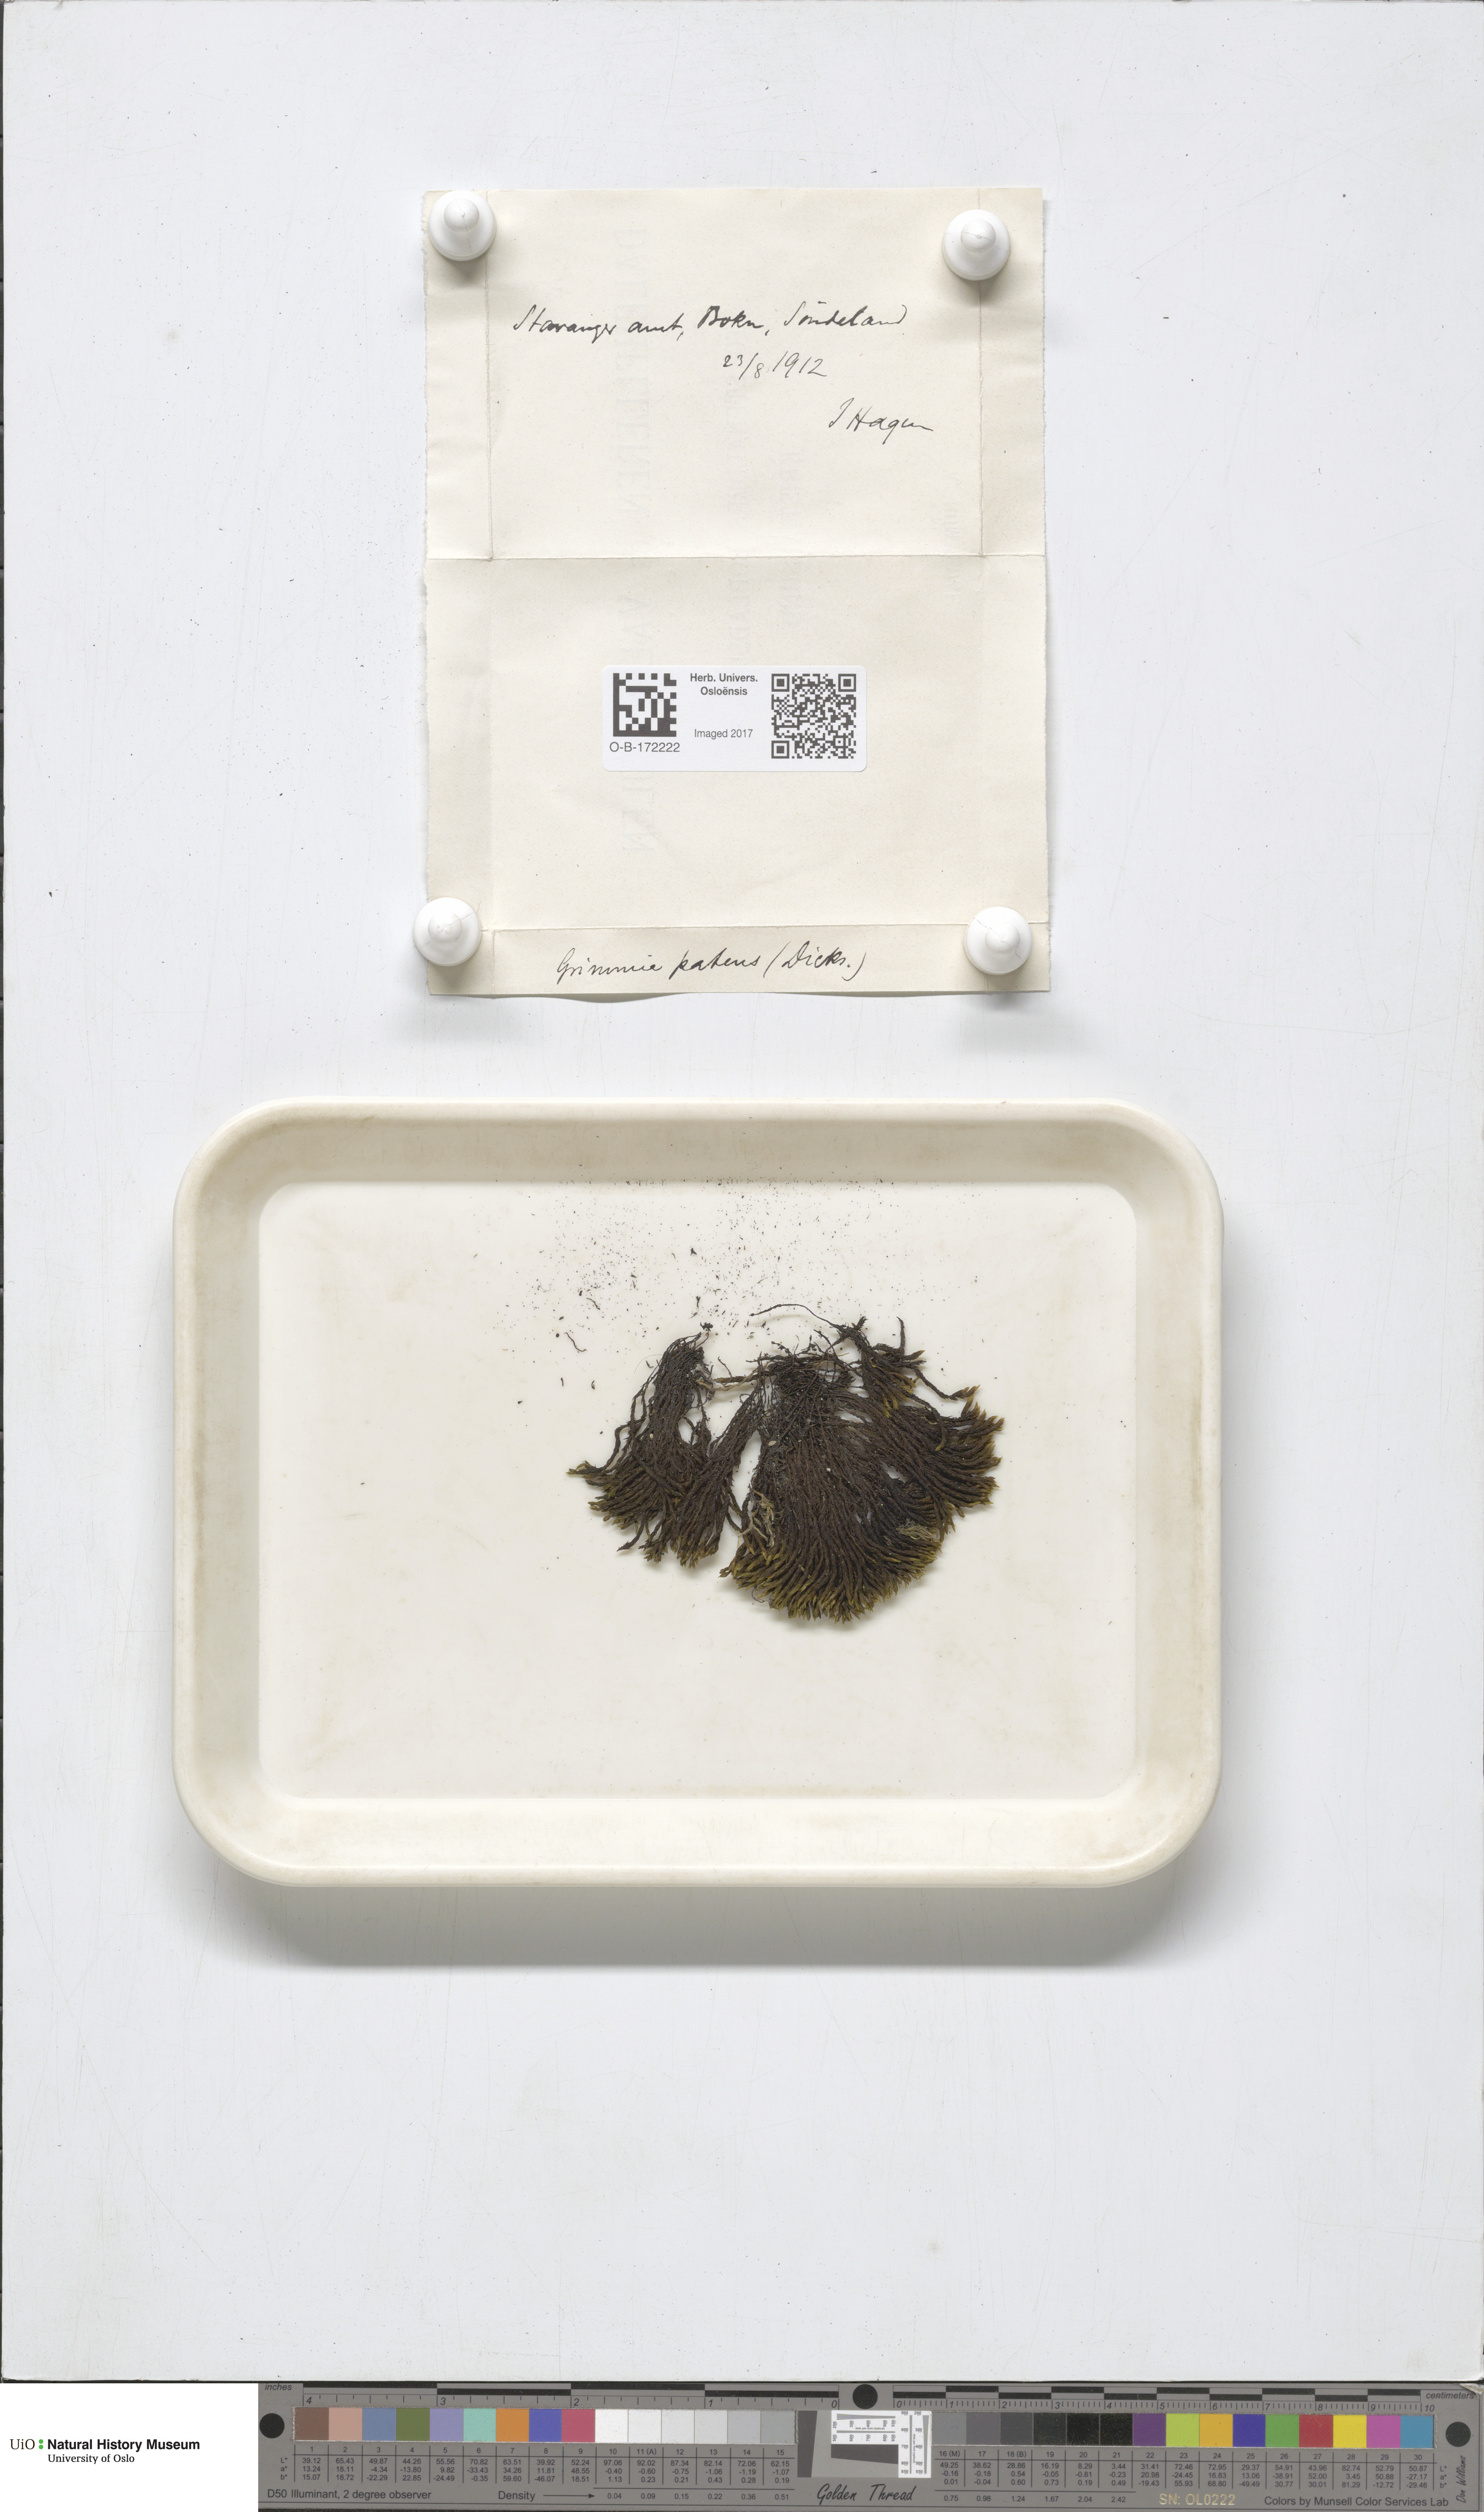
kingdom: Plantae
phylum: Bryophyta
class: Bryopsida
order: Grimmiales
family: Grimmiaceae
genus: Grimmia
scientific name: Grimmia ramondii
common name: Spreading-leaved grimmia
